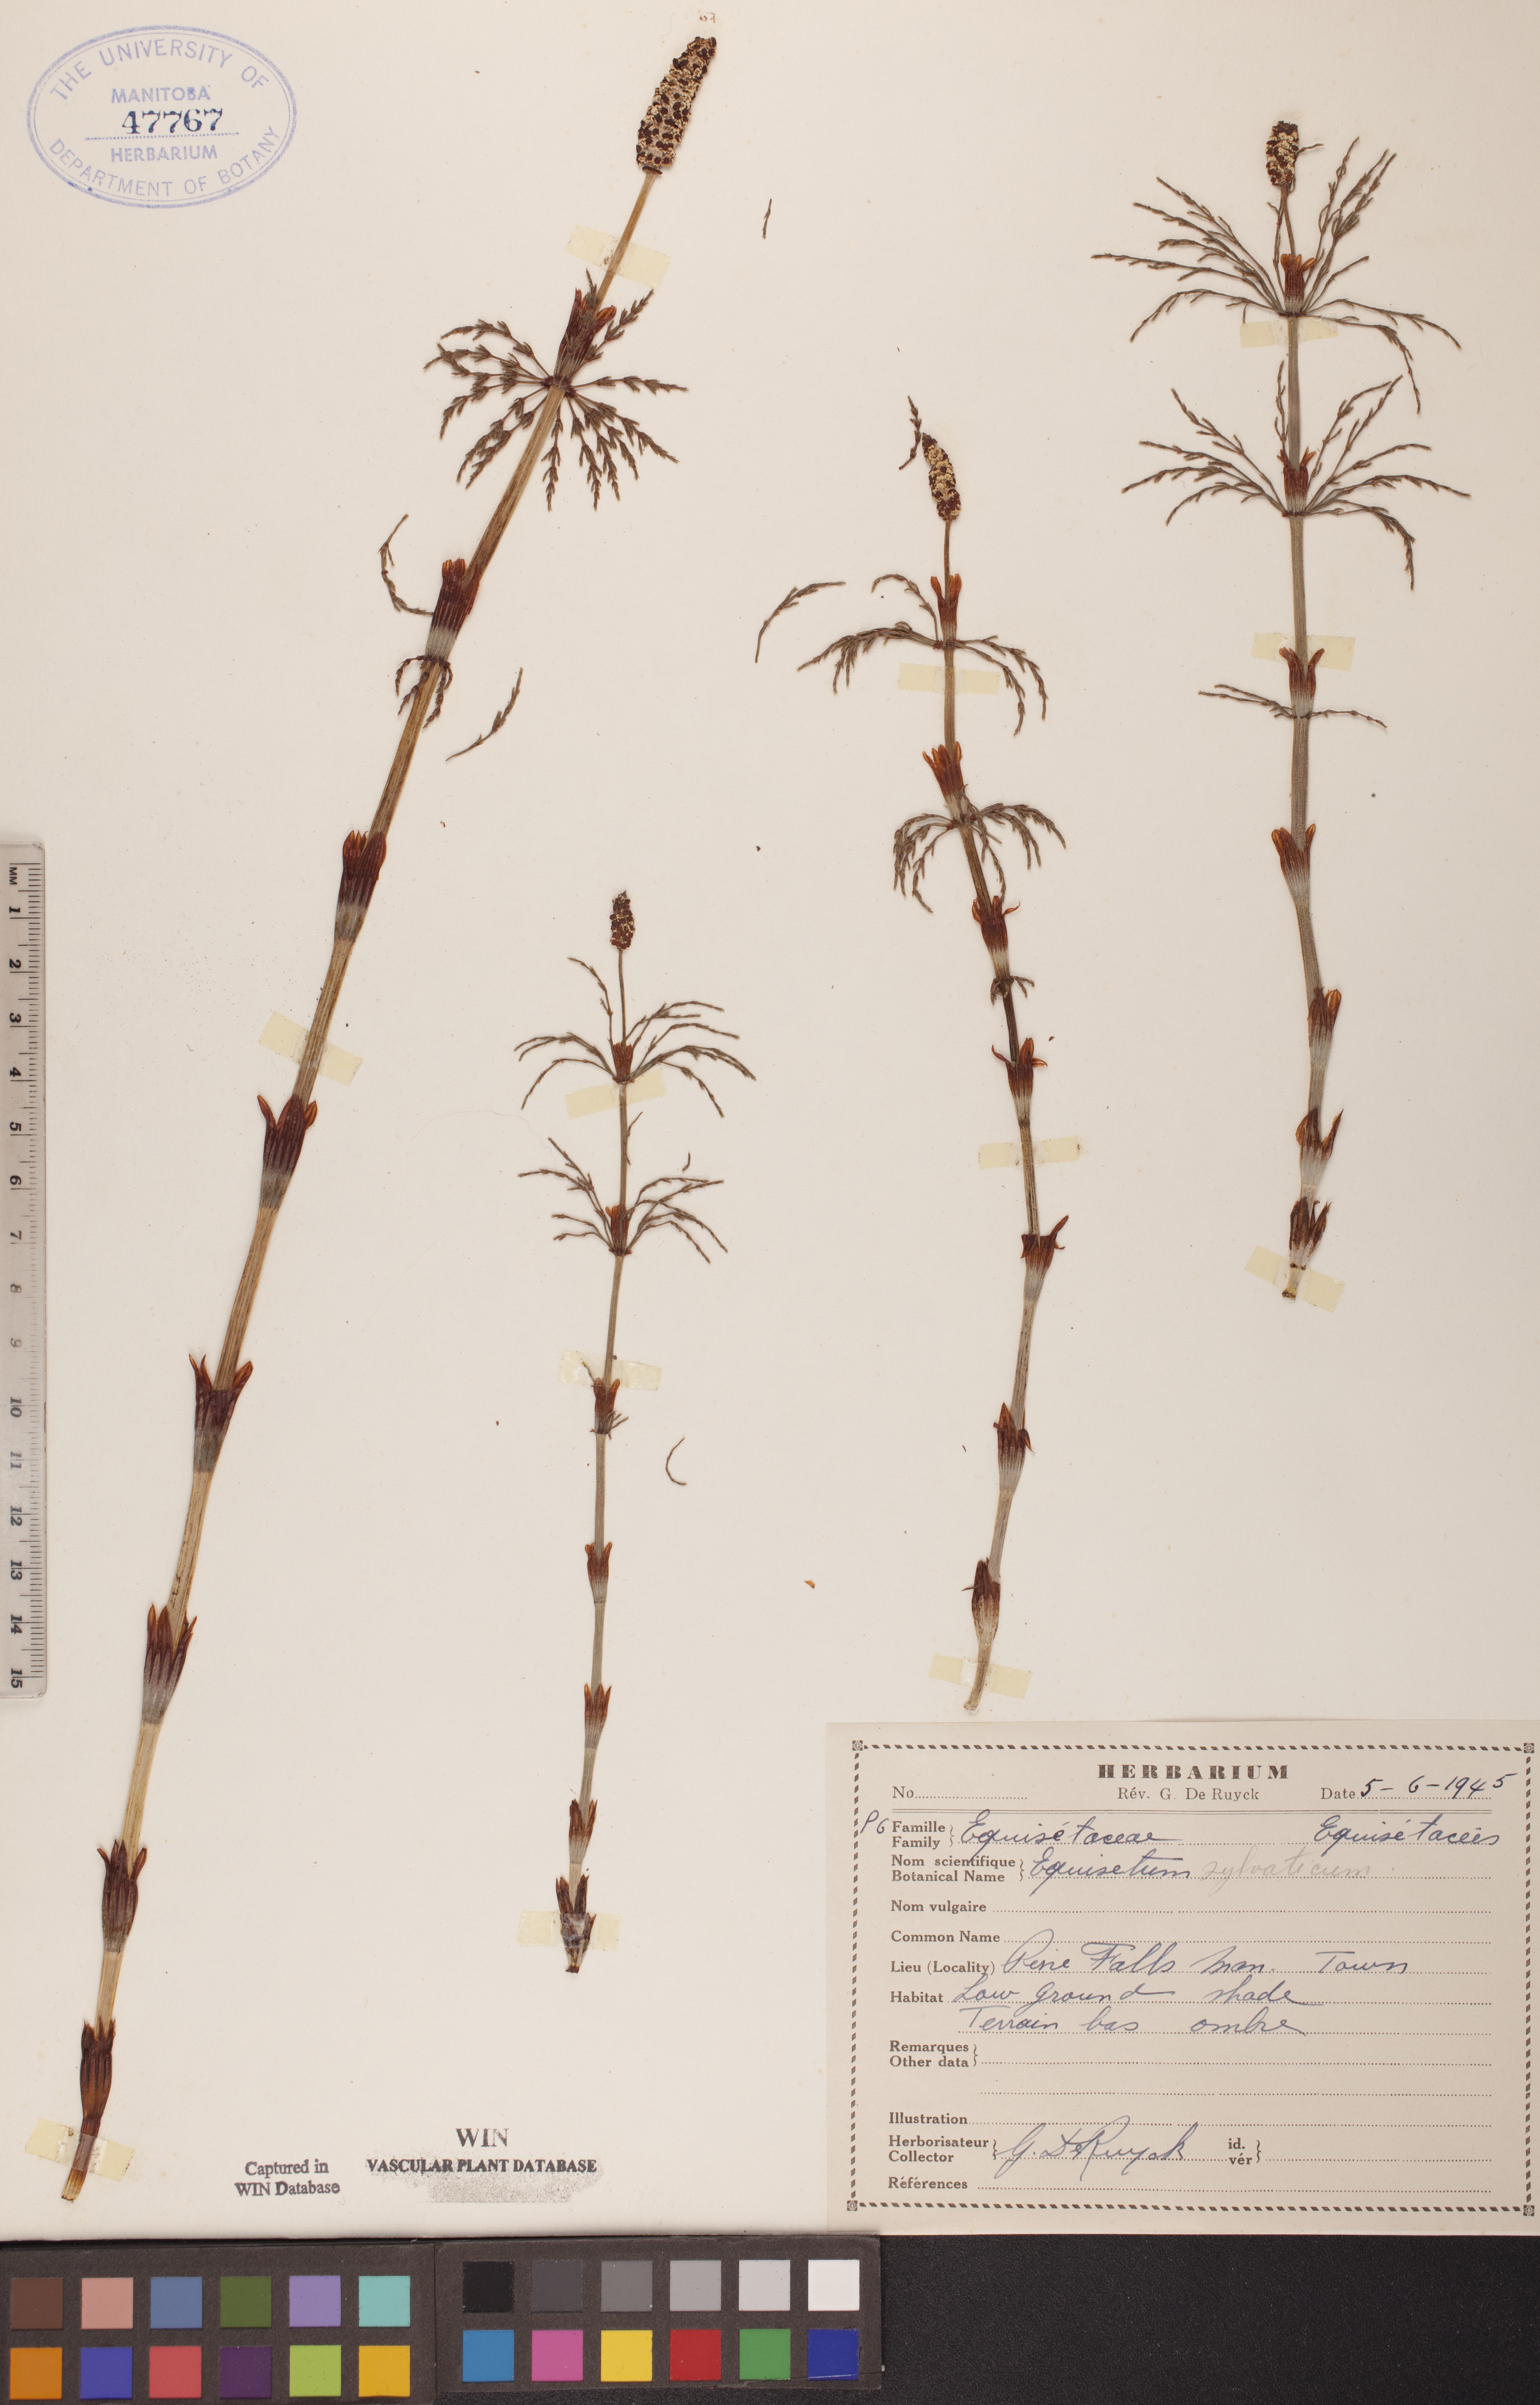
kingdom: Plantae
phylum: Tracheophyta
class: Polypodiopsida
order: Equisetales
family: Equisetaceae
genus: Equisetum
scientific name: Equisetum sylvaticum
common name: Wood horsetail
